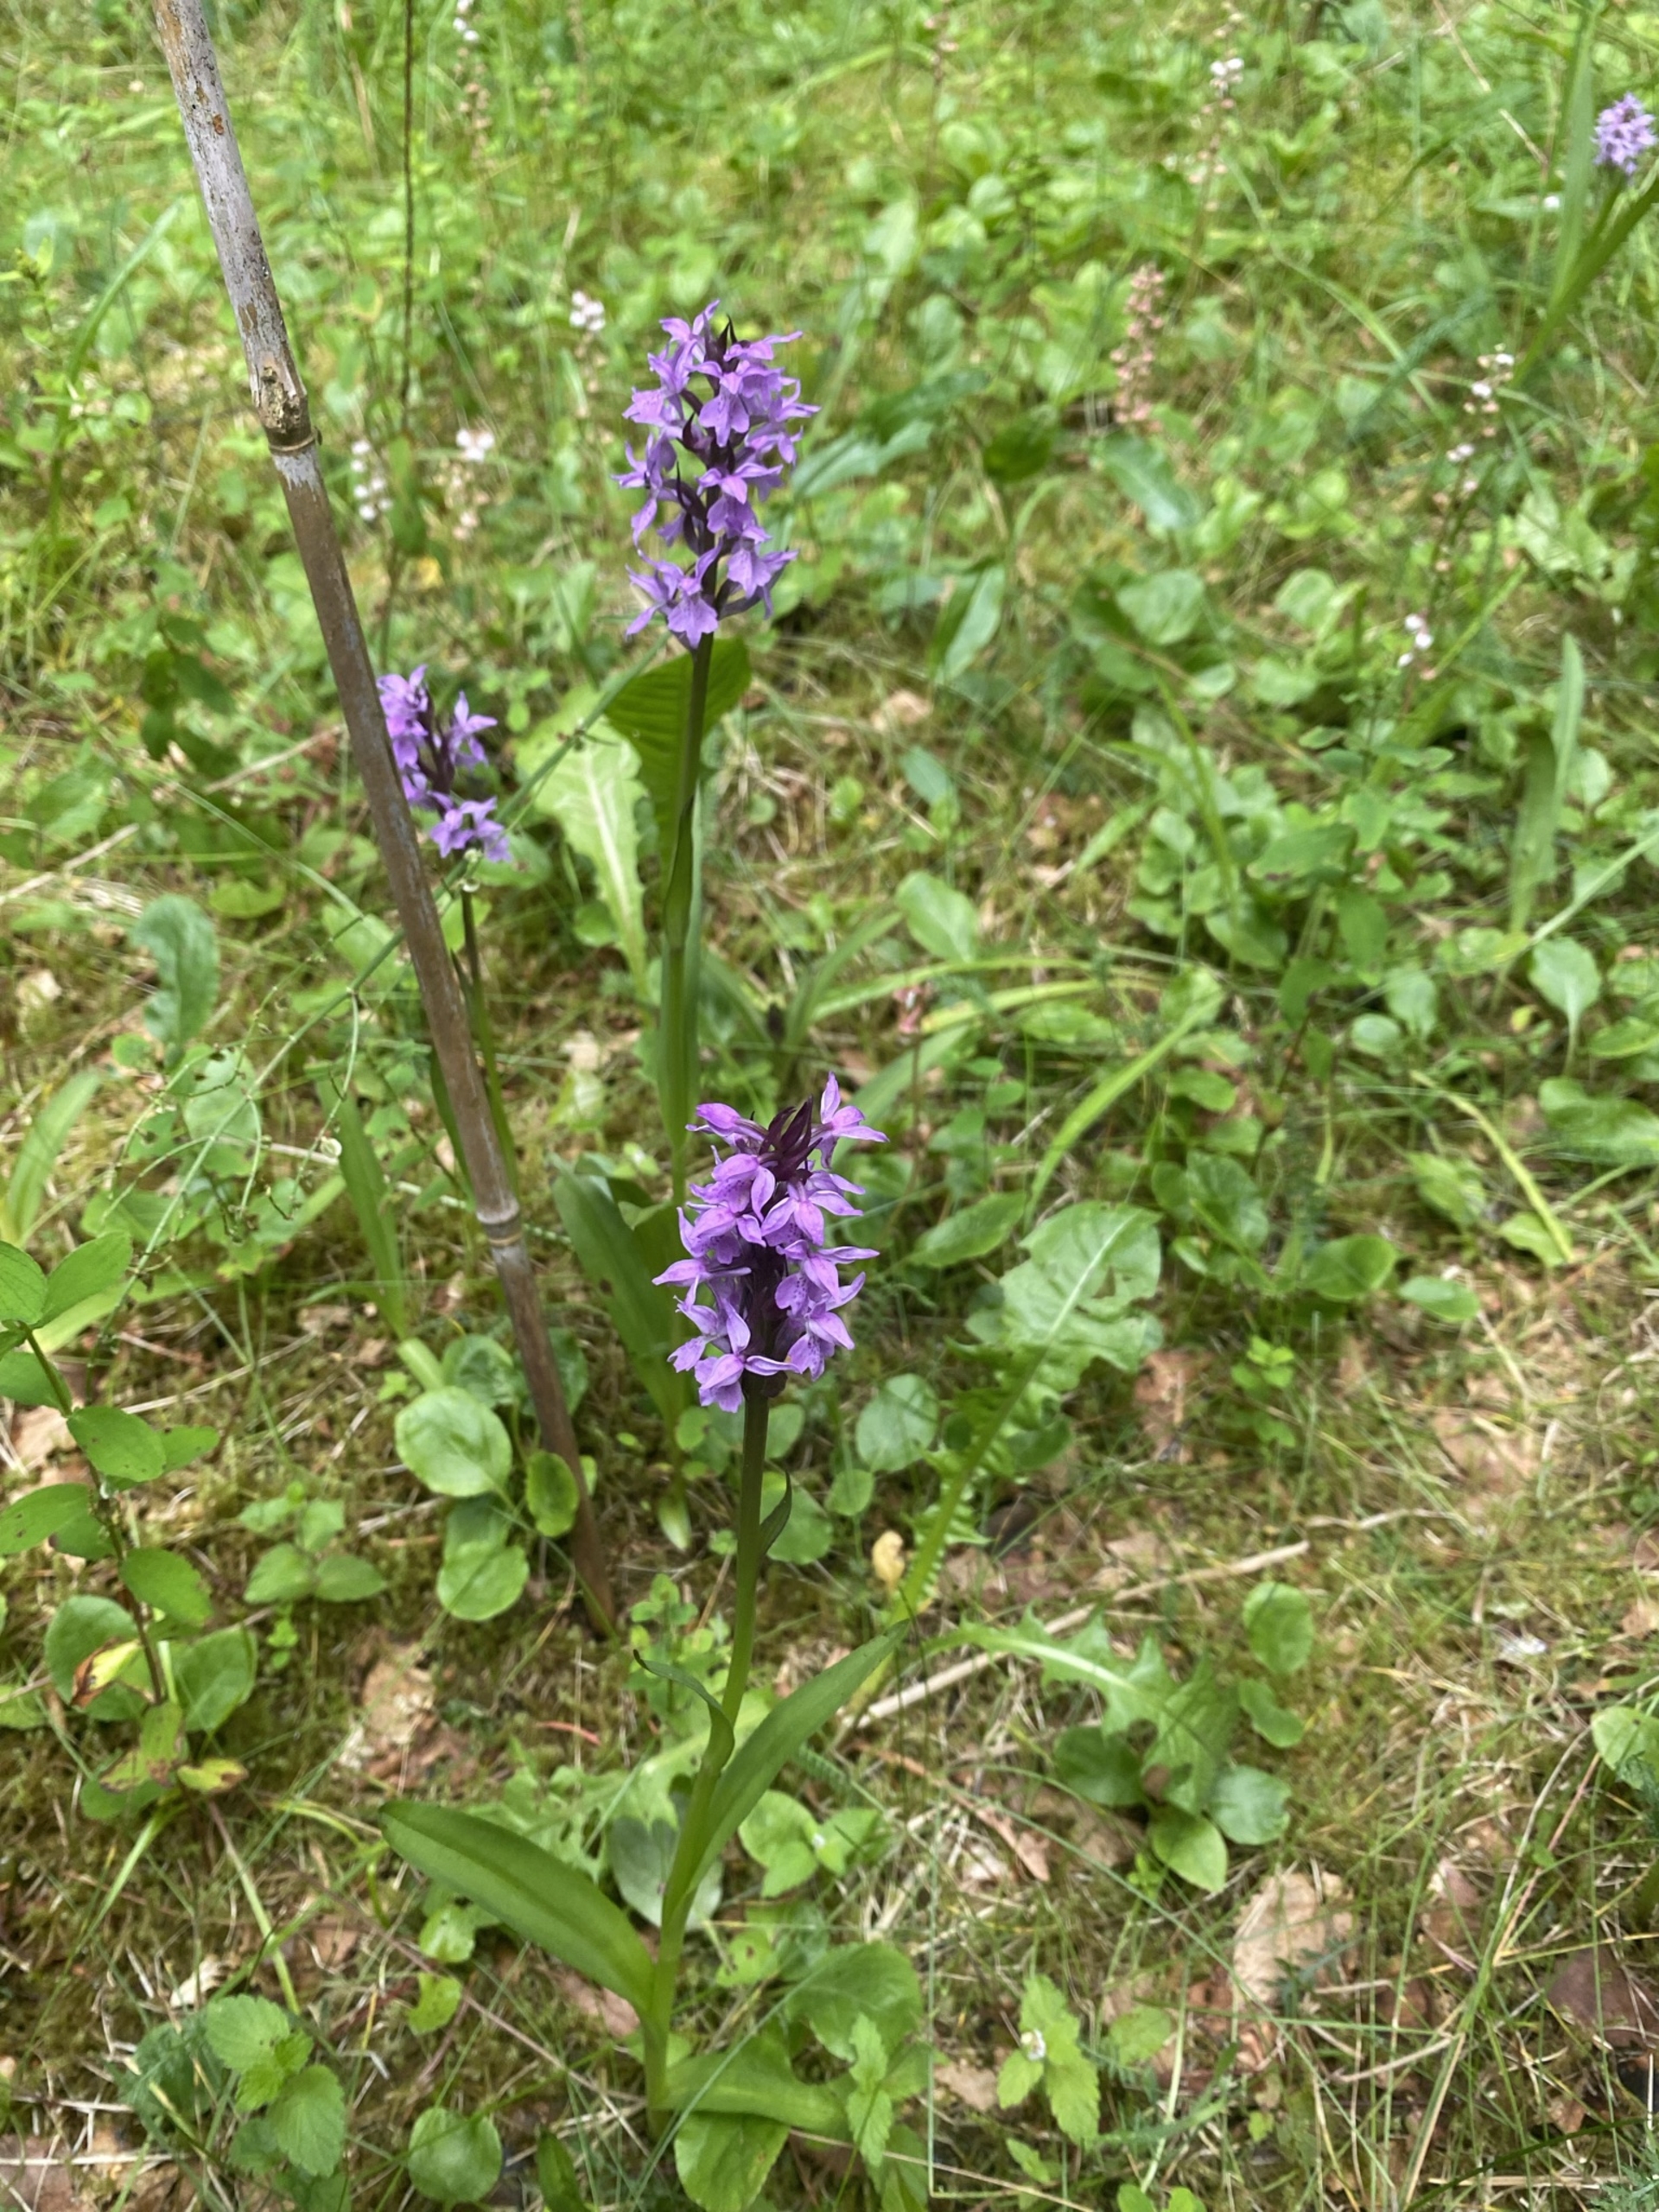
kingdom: Plantae
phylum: Tracheophyta
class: Liliopsida
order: Asparagales
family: Orchidaceae
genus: Dactylorhiza
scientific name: Dactylorhiza majalis
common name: Priklæbet gøgeurt
